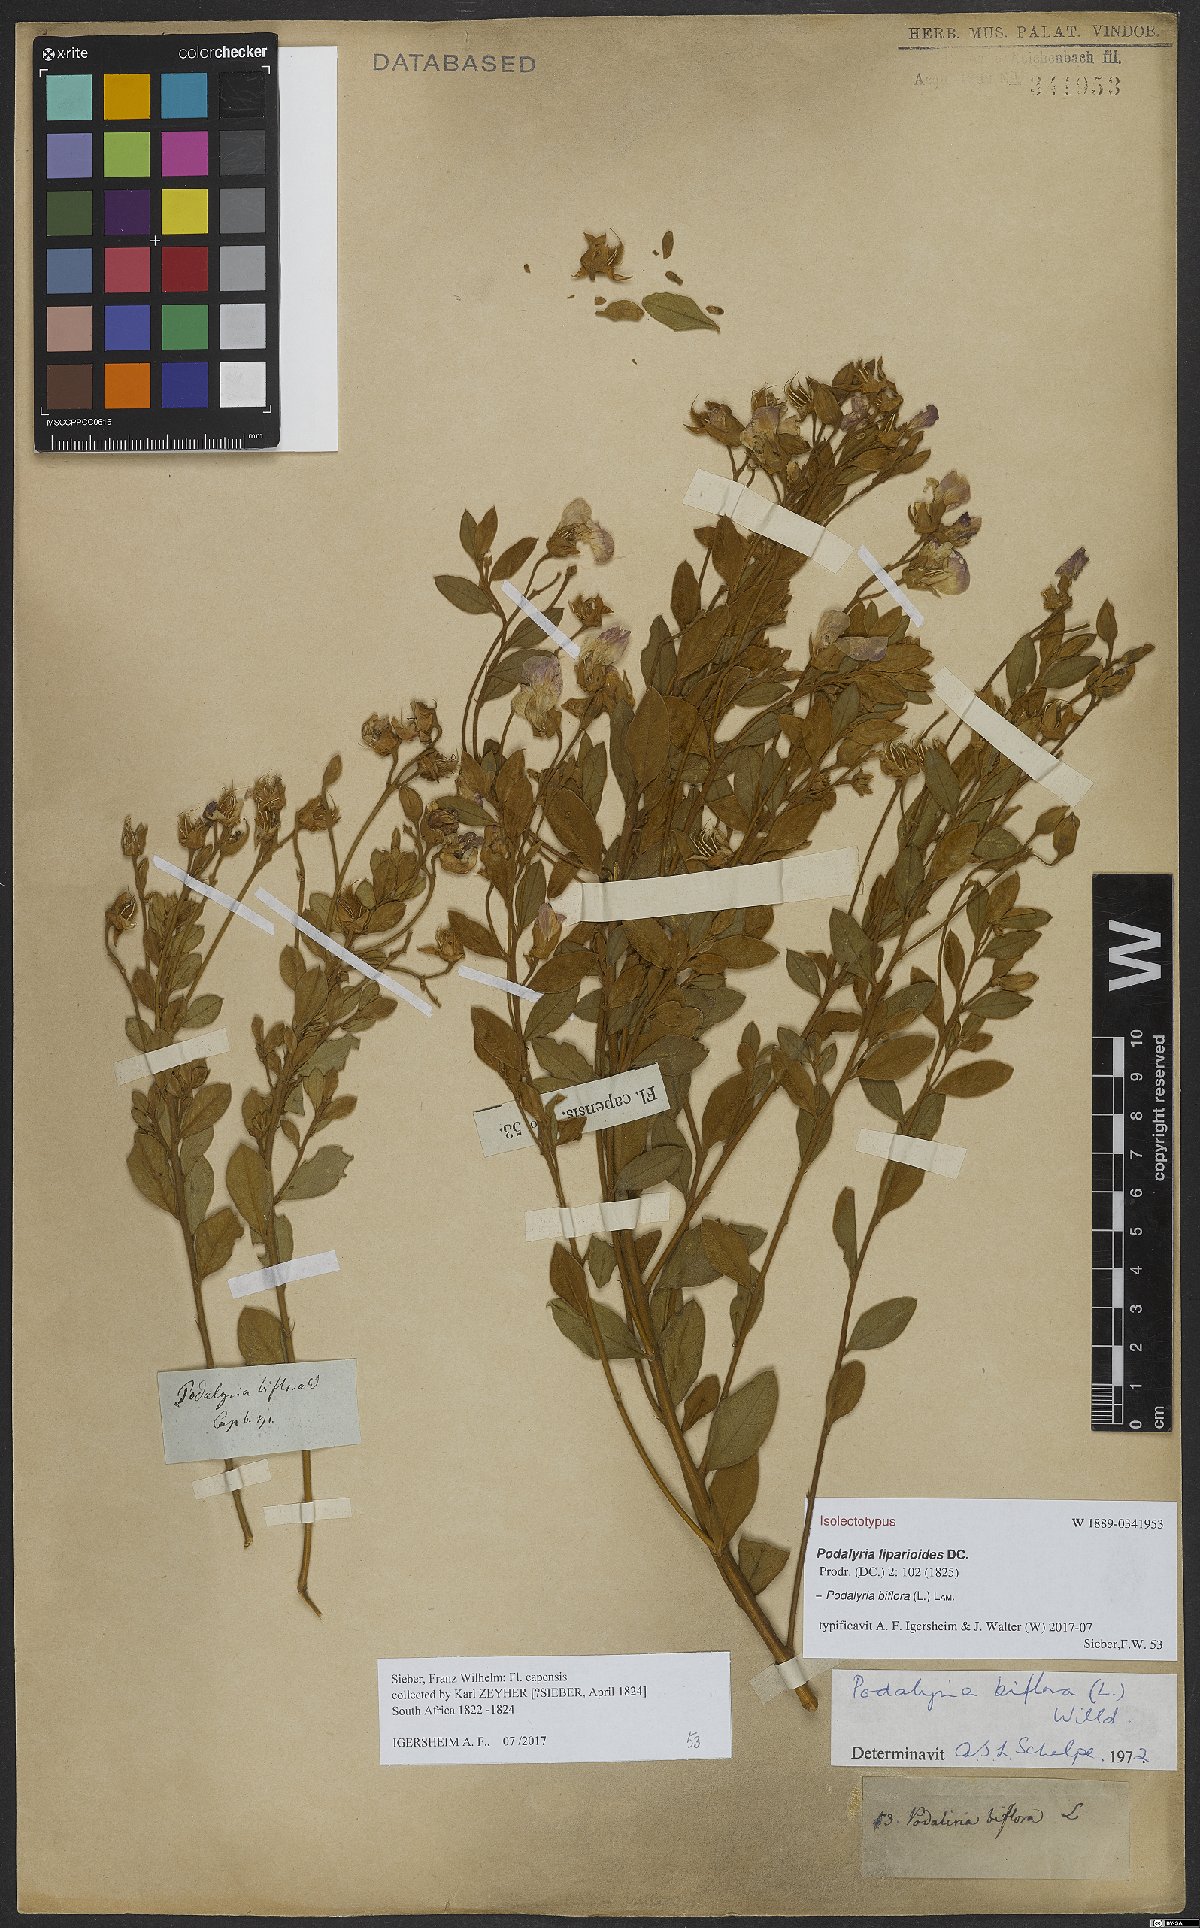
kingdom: Plantae
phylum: Tracheophyta
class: Magnoliopsida
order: Fabales
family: Fabaceae
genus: Podalyria
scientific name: Podalyria biflora
